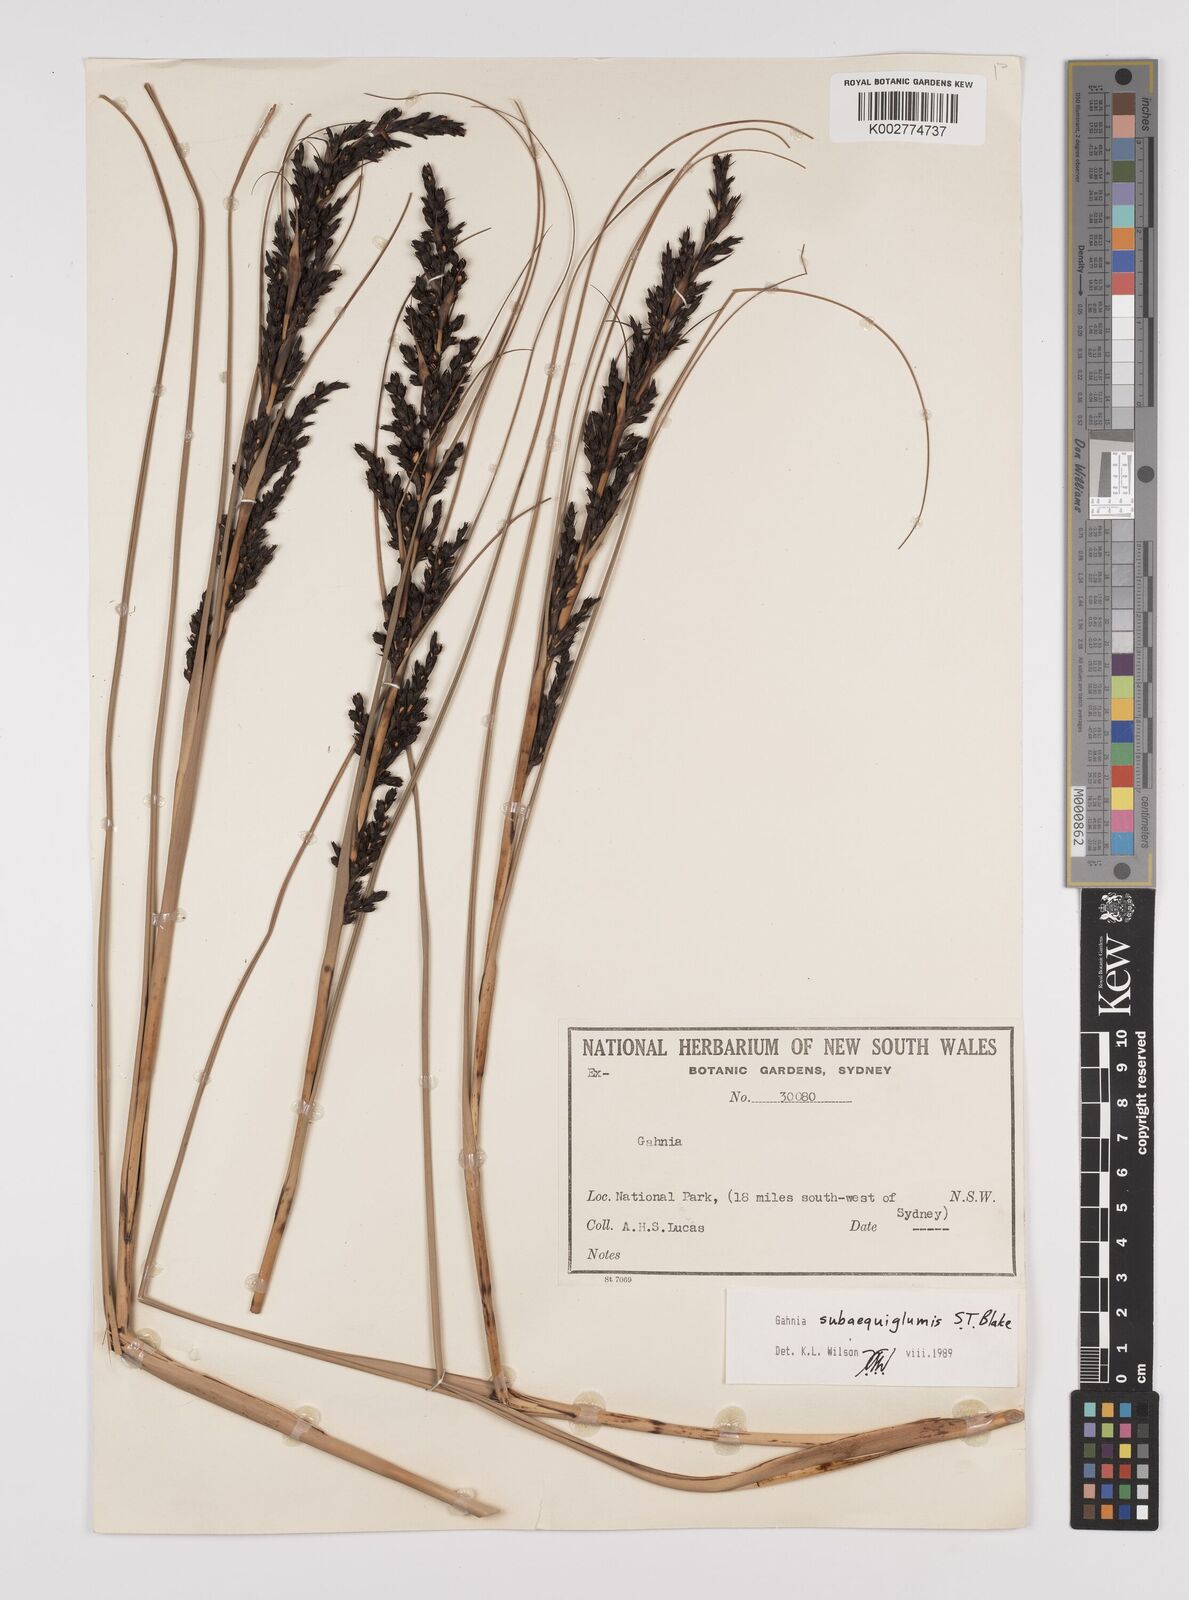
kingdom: Plantae
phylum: Tracheophyta
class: Liliopsida
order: Poales
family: Cyperaceae
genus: Gahnia
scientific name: Gahnia subaequiglumis
